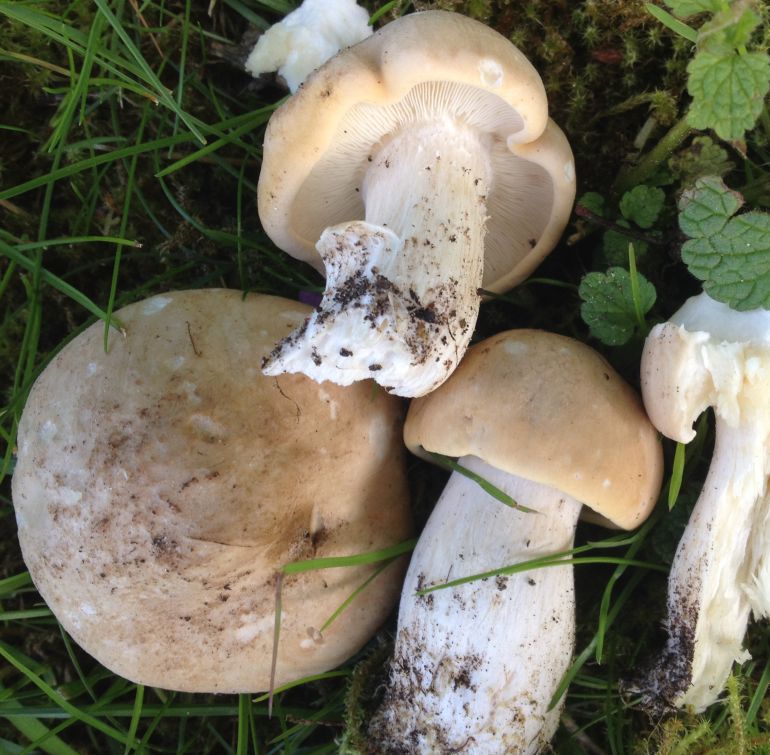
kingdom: Fungi
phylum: Basidiomycota
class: Agaricomycetes
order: Agaricales
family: Lyophyllaceae
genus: Calocybe
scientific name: Calocybe gambosa
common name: vårmusseron
